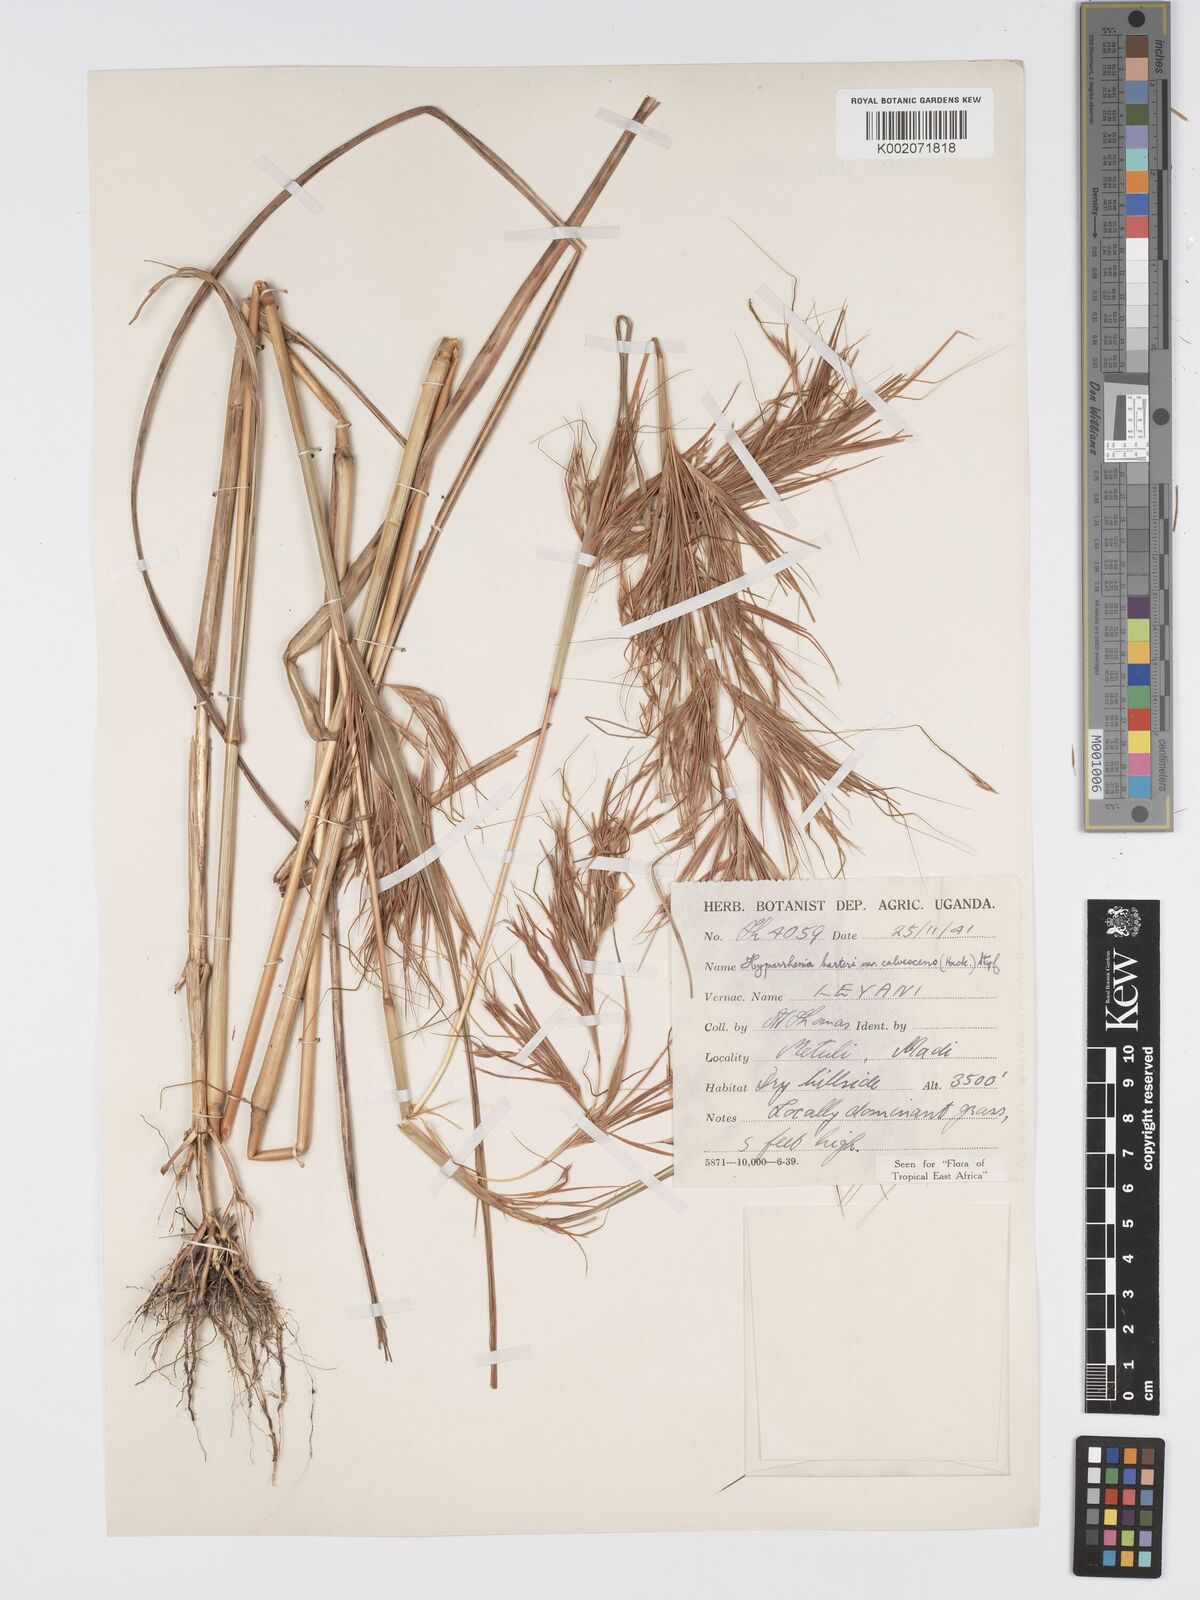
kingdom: Plantae
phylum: Tracheophyta
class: Liliopsida
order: Poales
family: Poaceae
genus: Hyparrhenia
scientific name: Hyparrhenia figariana
